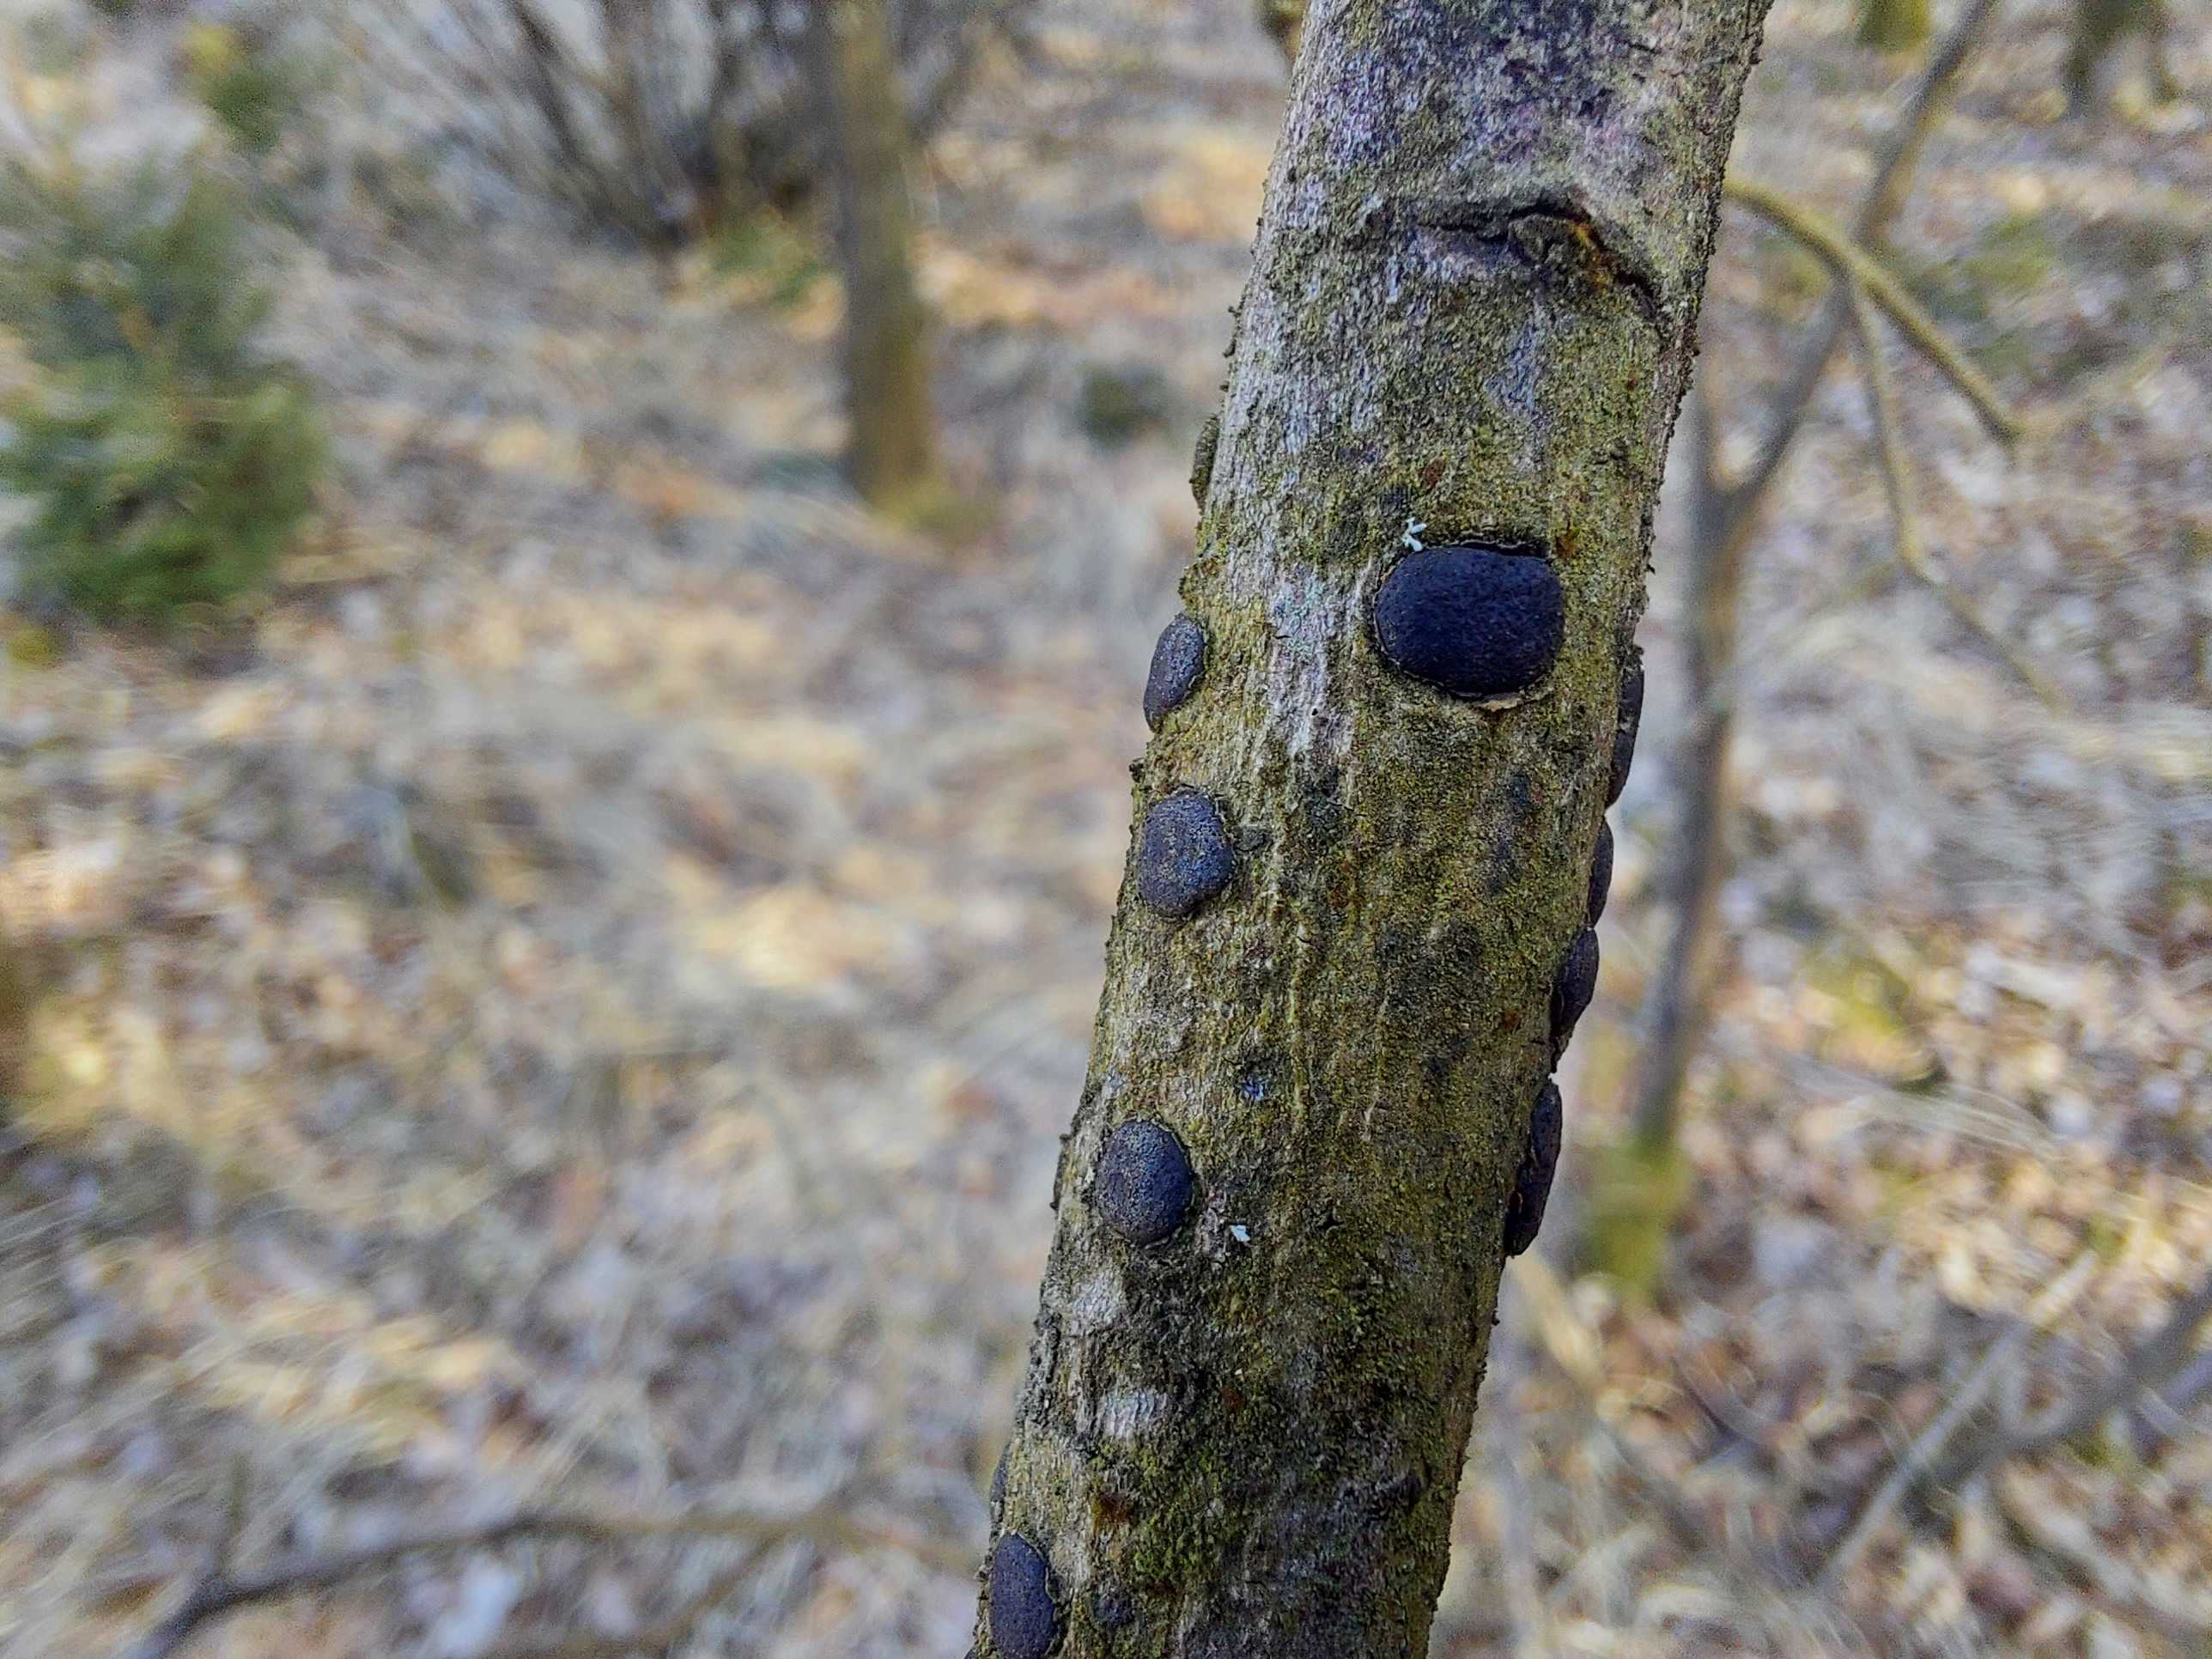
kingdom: Fungi
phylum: Ascomycota
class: Sordariomycetes
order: Xylariales
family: Diatrypaceae
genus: Diatrype
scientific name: Diatrype
